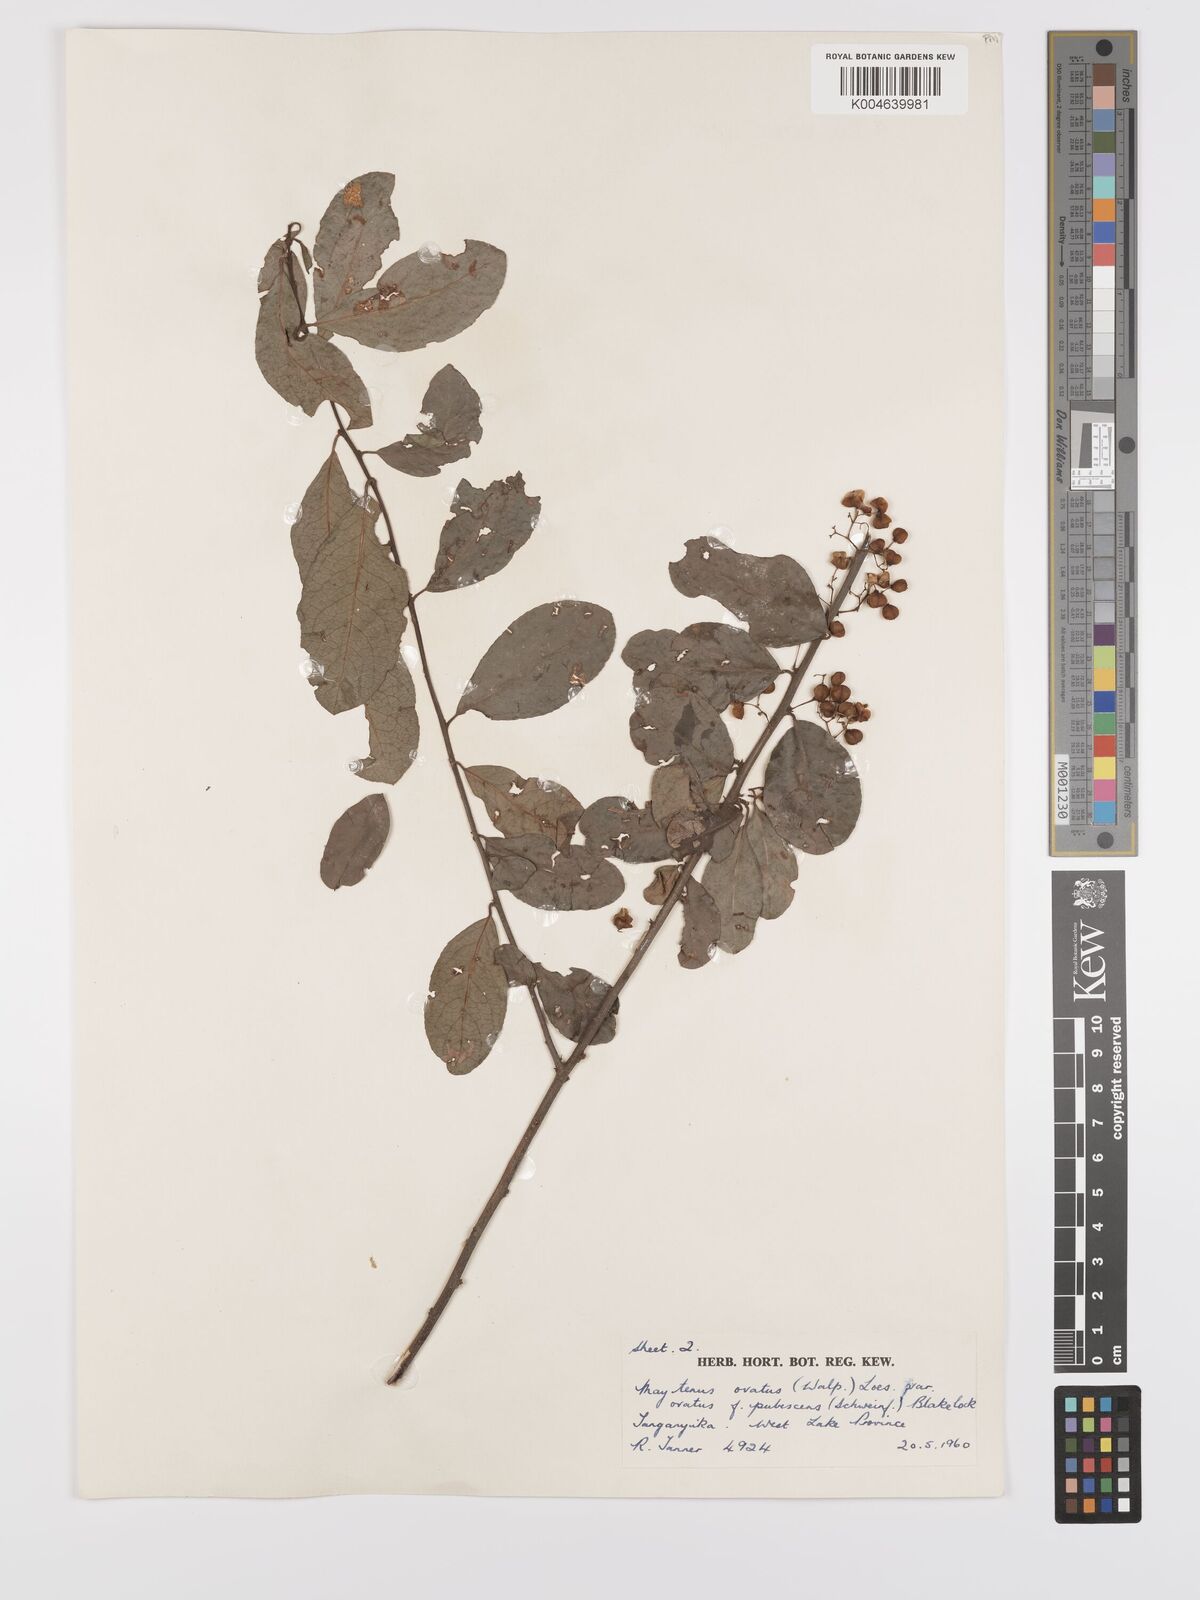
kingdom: Plantae
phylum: Tracheophyta
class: Magnoliopsida
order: Celastrales
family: Celastraceae
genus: Gymnosporia
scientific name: Gymnosporia arbutifolia
